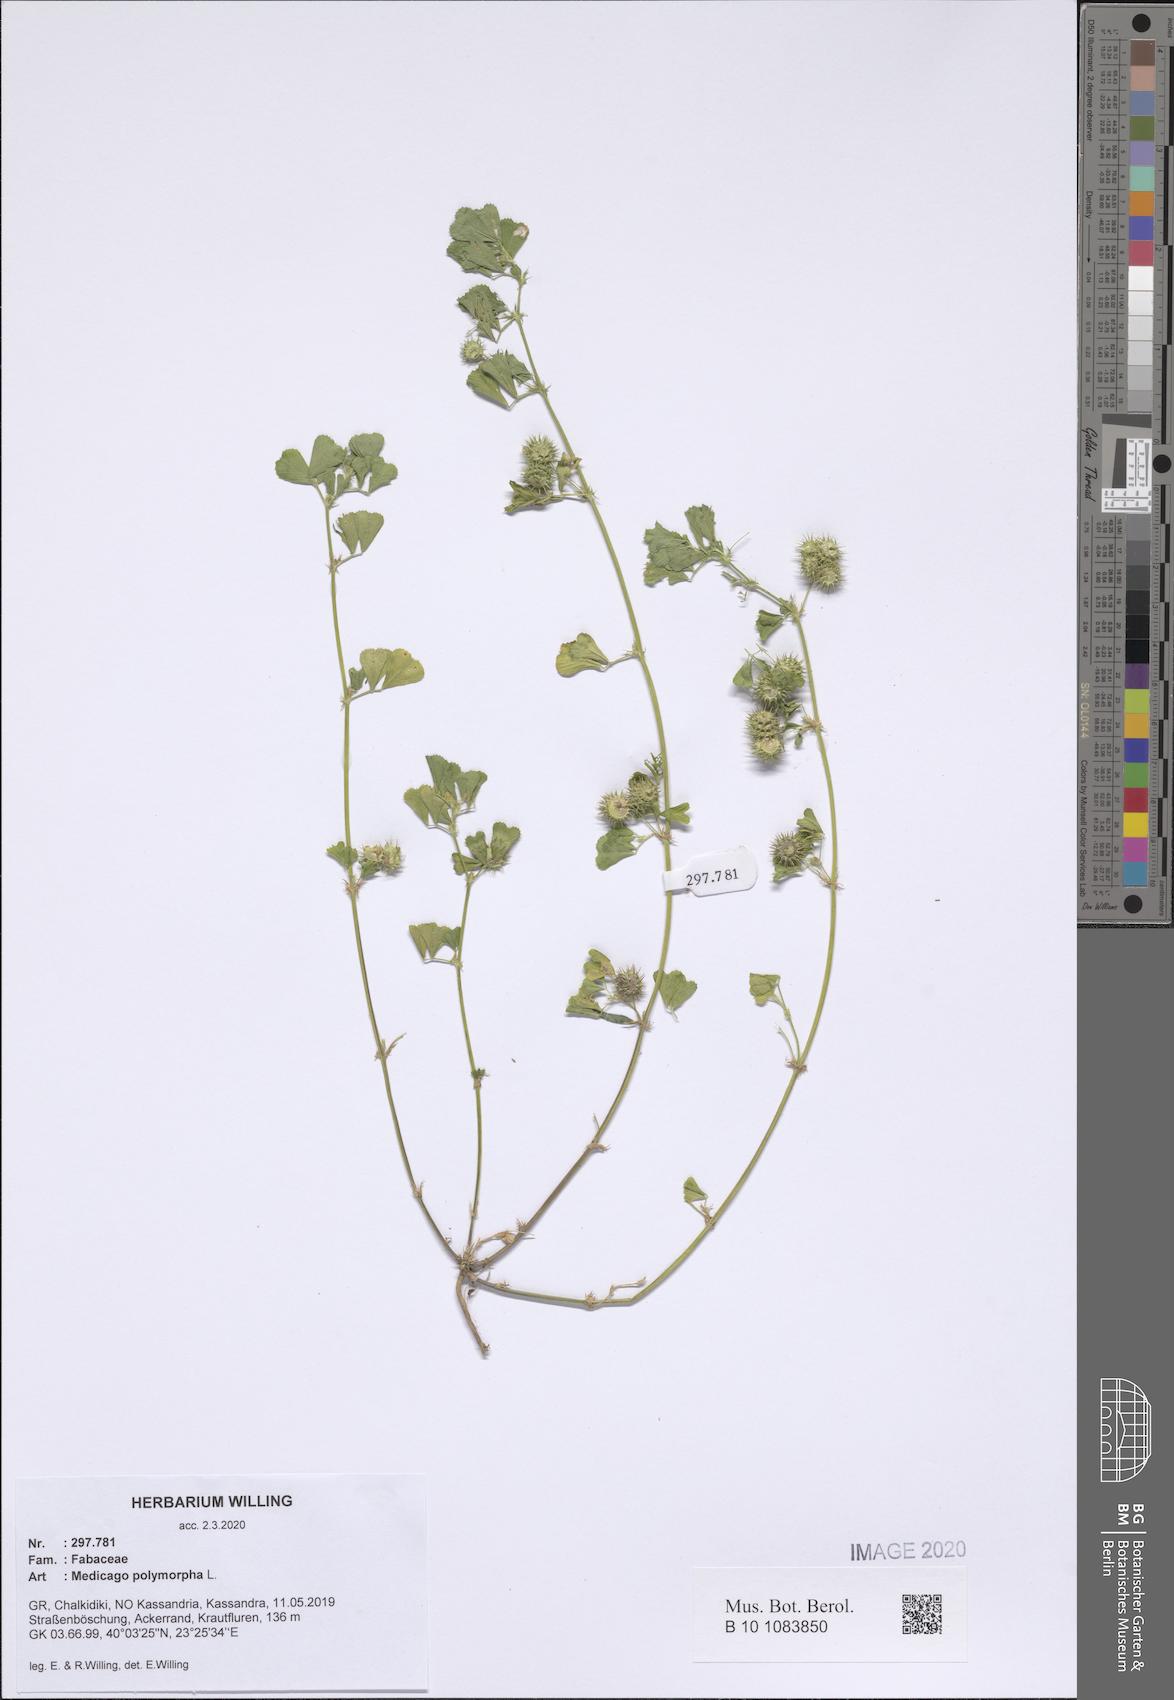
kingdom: Plantae
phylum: Tracheophyta
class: Magnoliopsida
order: Fabales
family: Fabaceae
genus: Medicago
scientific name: Medicago polymorpha
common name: Burclover
